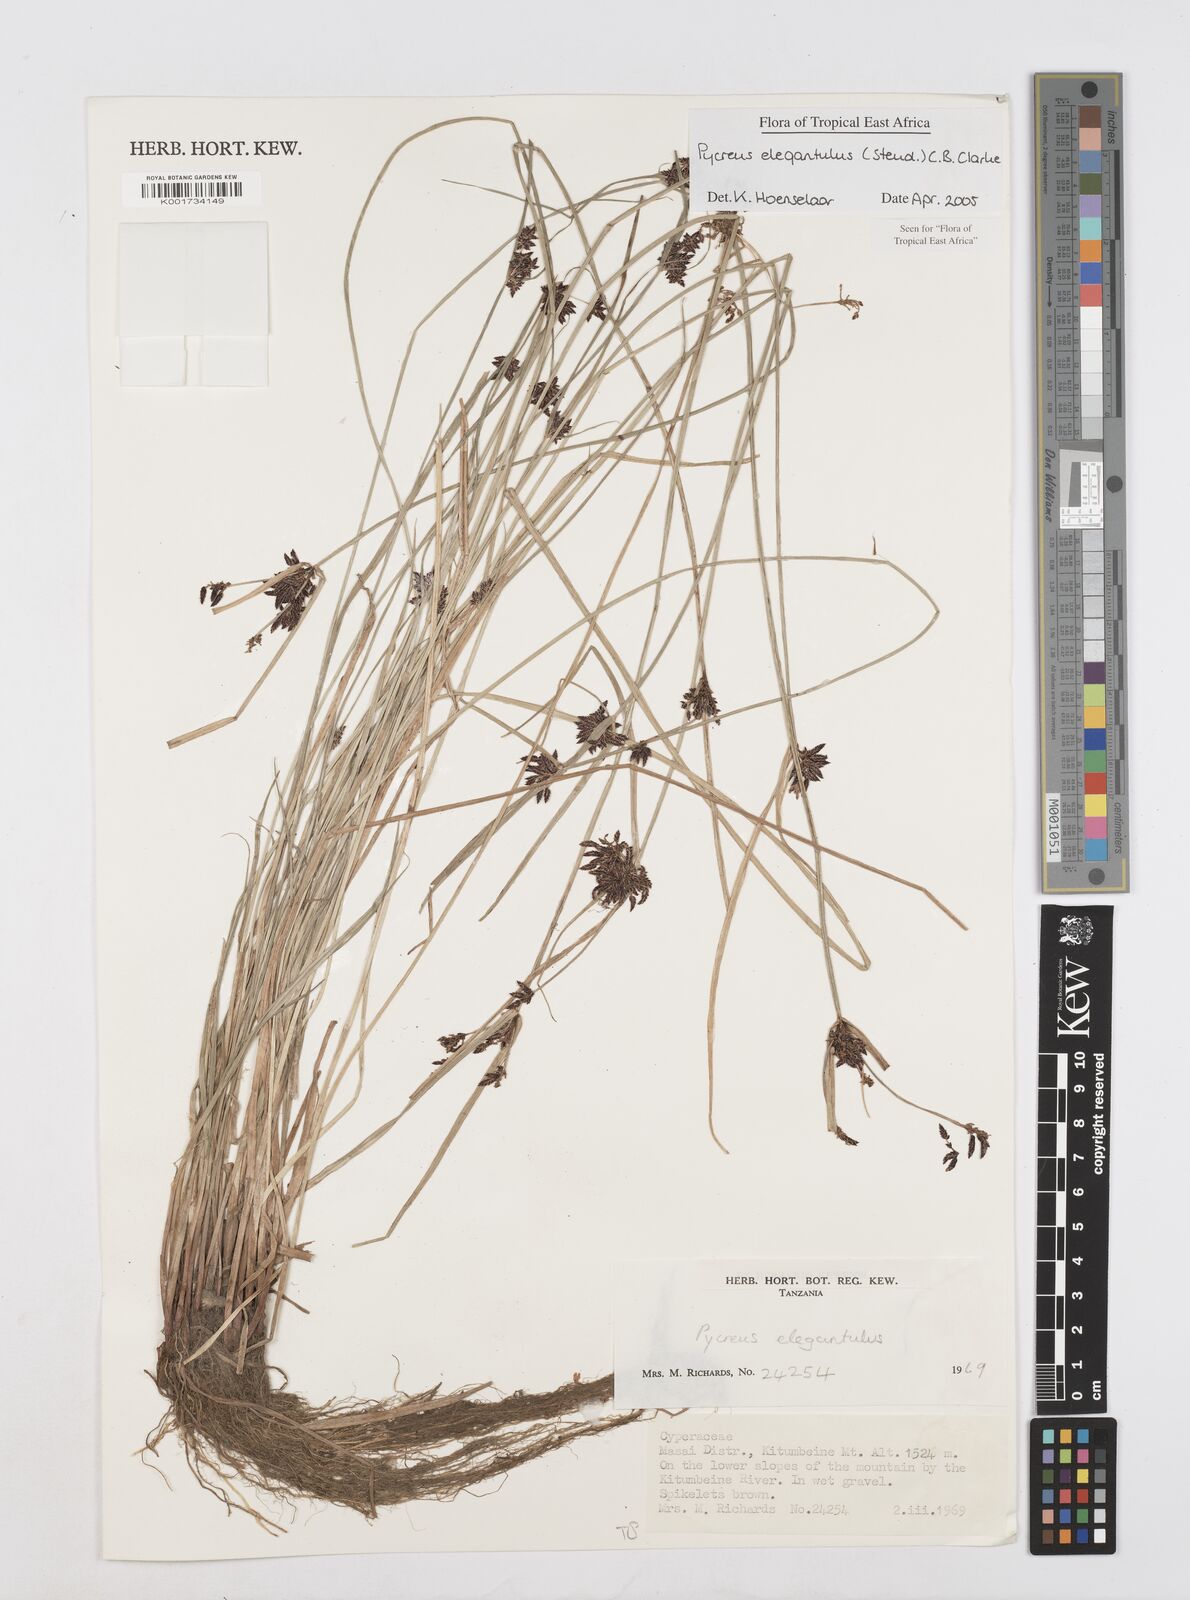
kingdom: Plantae
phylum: Tracheophyta
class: Liliopsida
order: Poales
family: Cyperaceae
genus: Cyperus
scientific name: Cyperus elegantulus
